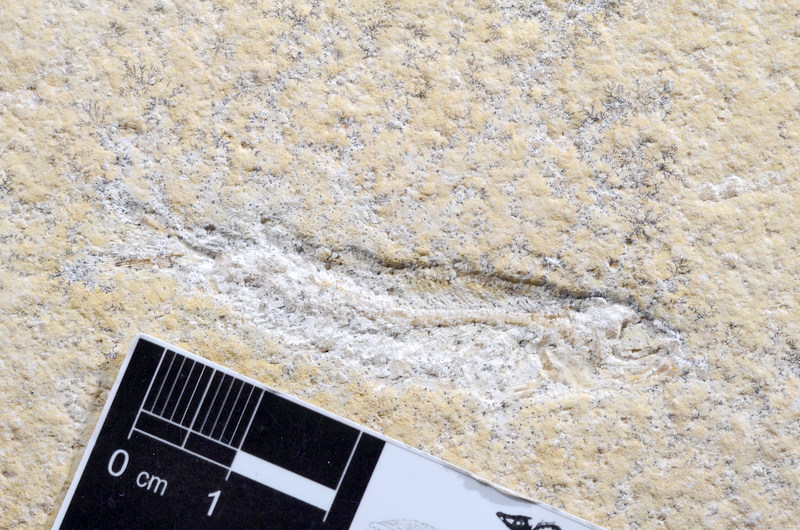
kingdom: Animalia
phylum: Chordata
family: Allothrissopidae
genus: Allothrissops
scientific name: Allothrissops
